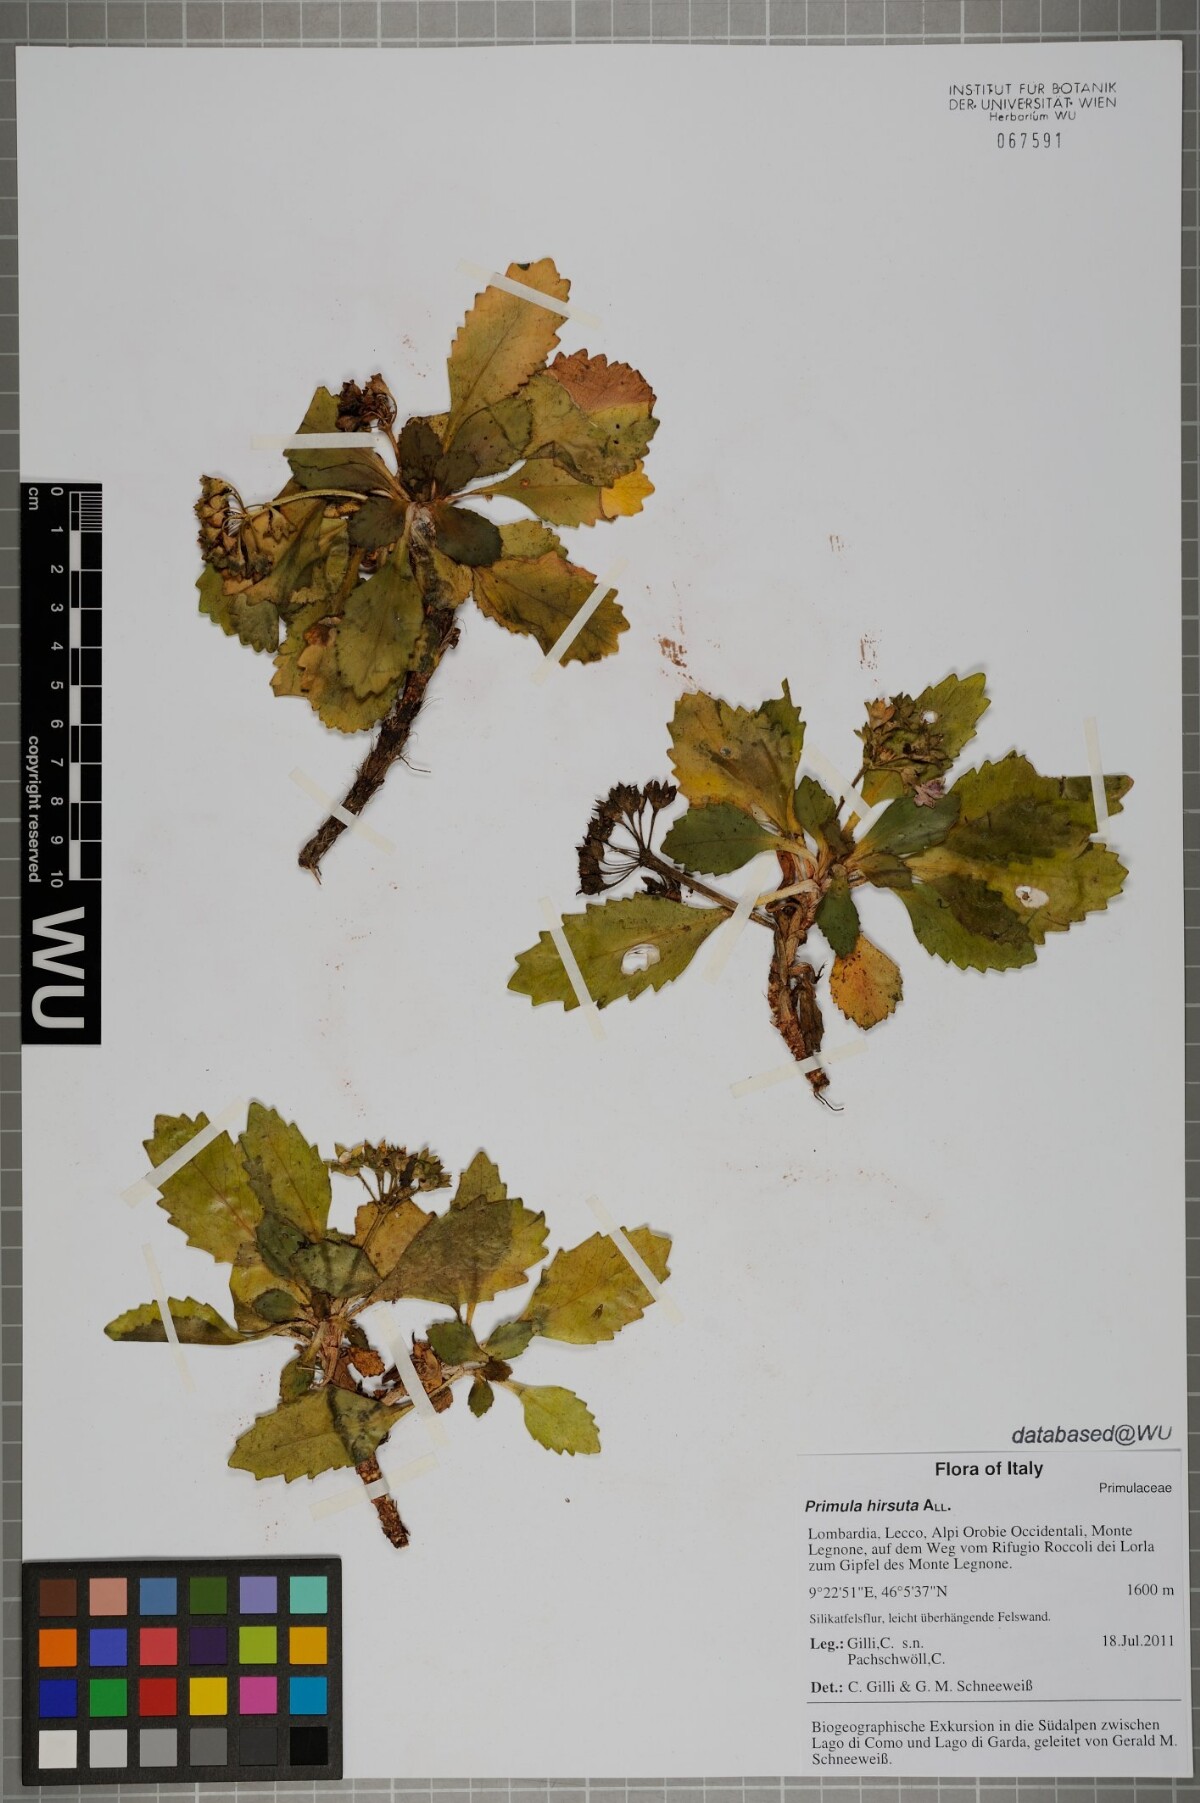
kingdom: Plantae
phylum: Tracheophyta
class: Magnoliopsida
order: Ericales
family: Primulaceae
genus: Primula
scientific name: Primula hirsuta
